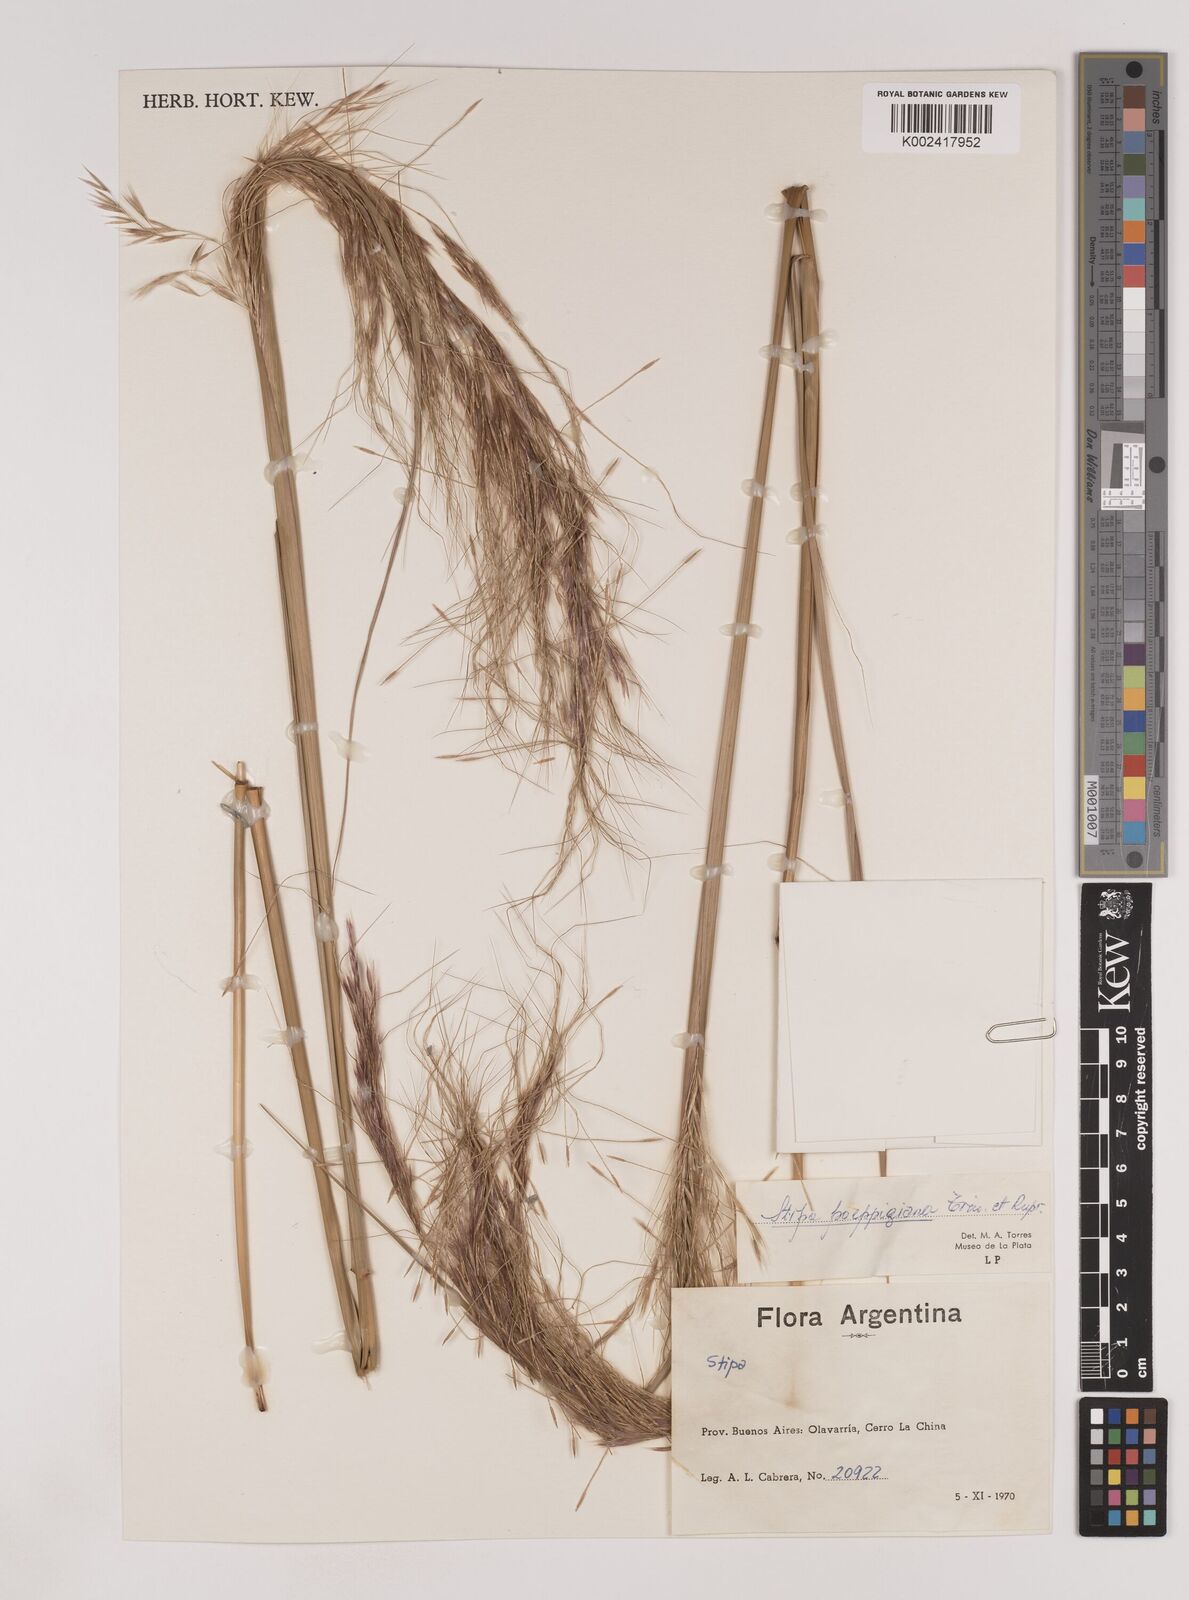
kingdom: Plantae
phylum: Tracheophyta
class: Liliopsida
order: Poales
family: Poaceae
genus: Nassella
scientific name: Nassella poeppigiana
